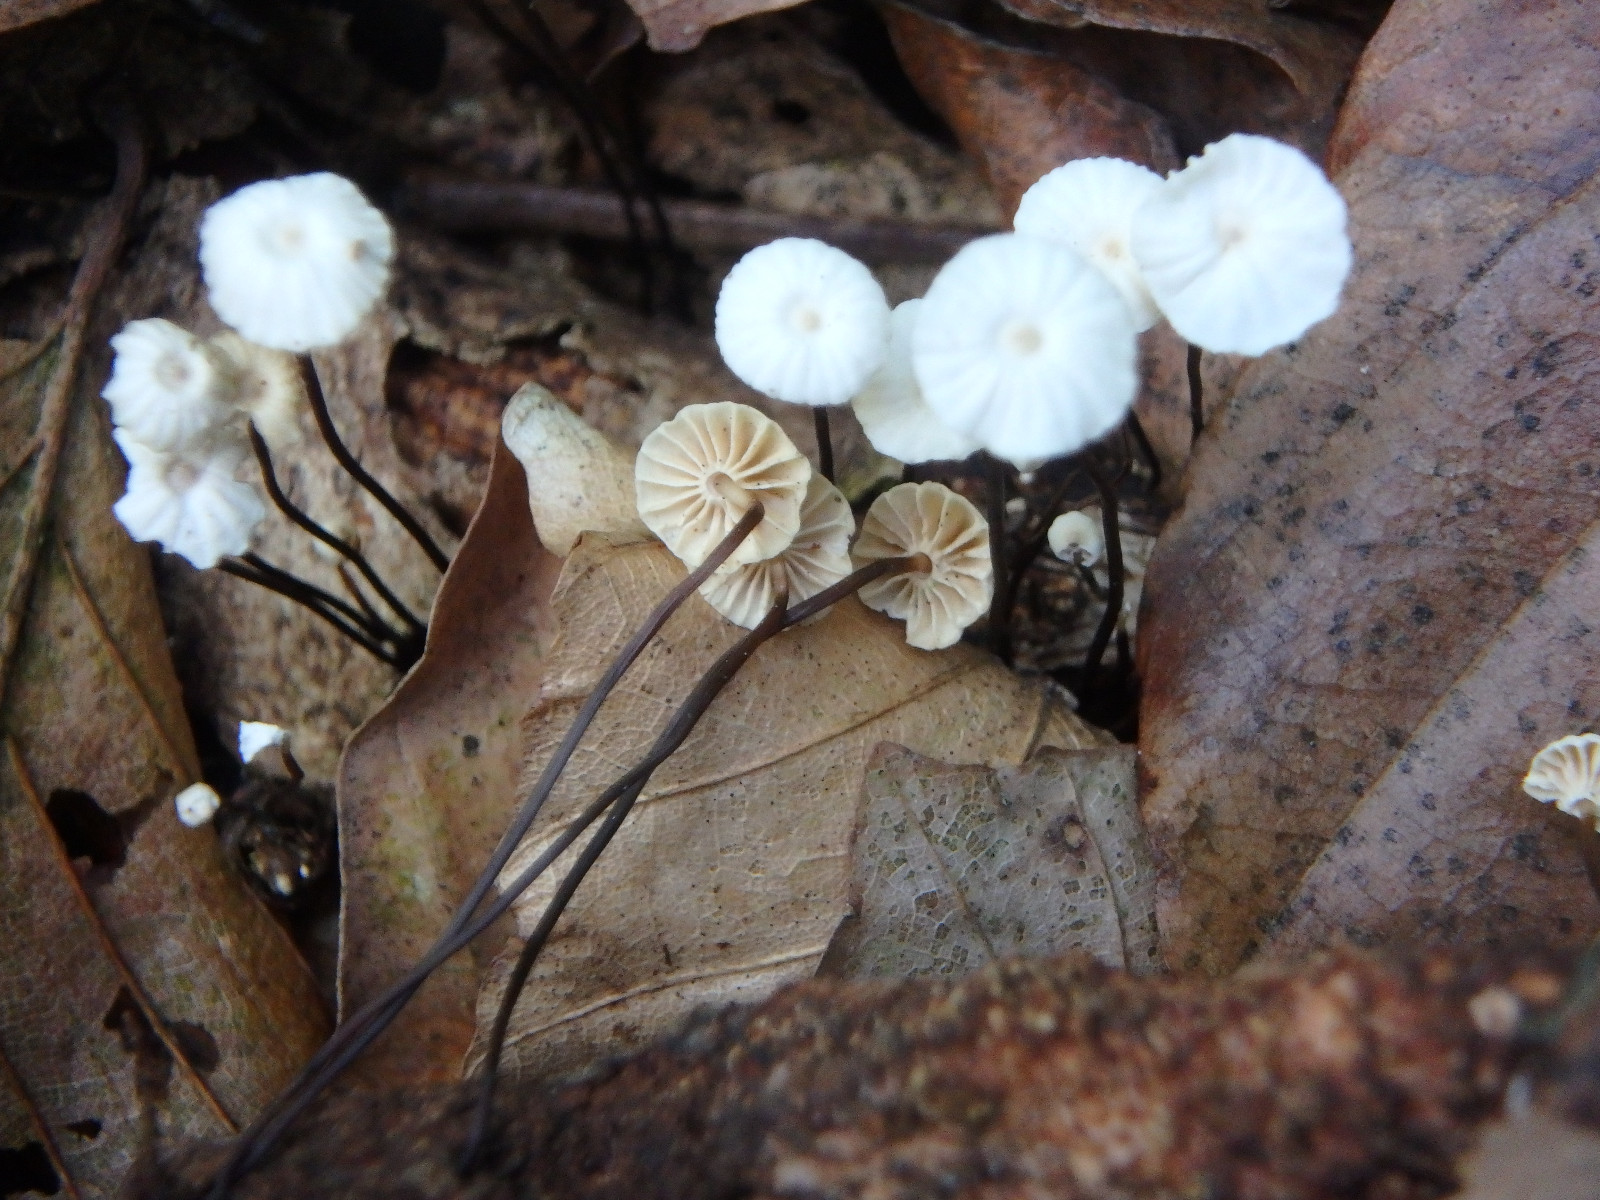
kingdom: Fungi
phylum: Basidiomycota
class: Agaricomycetes
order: Agaricales
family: Marasmiaceae
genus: Marasmius
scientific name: Marasmius rotula
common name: hjul-bruskhat
